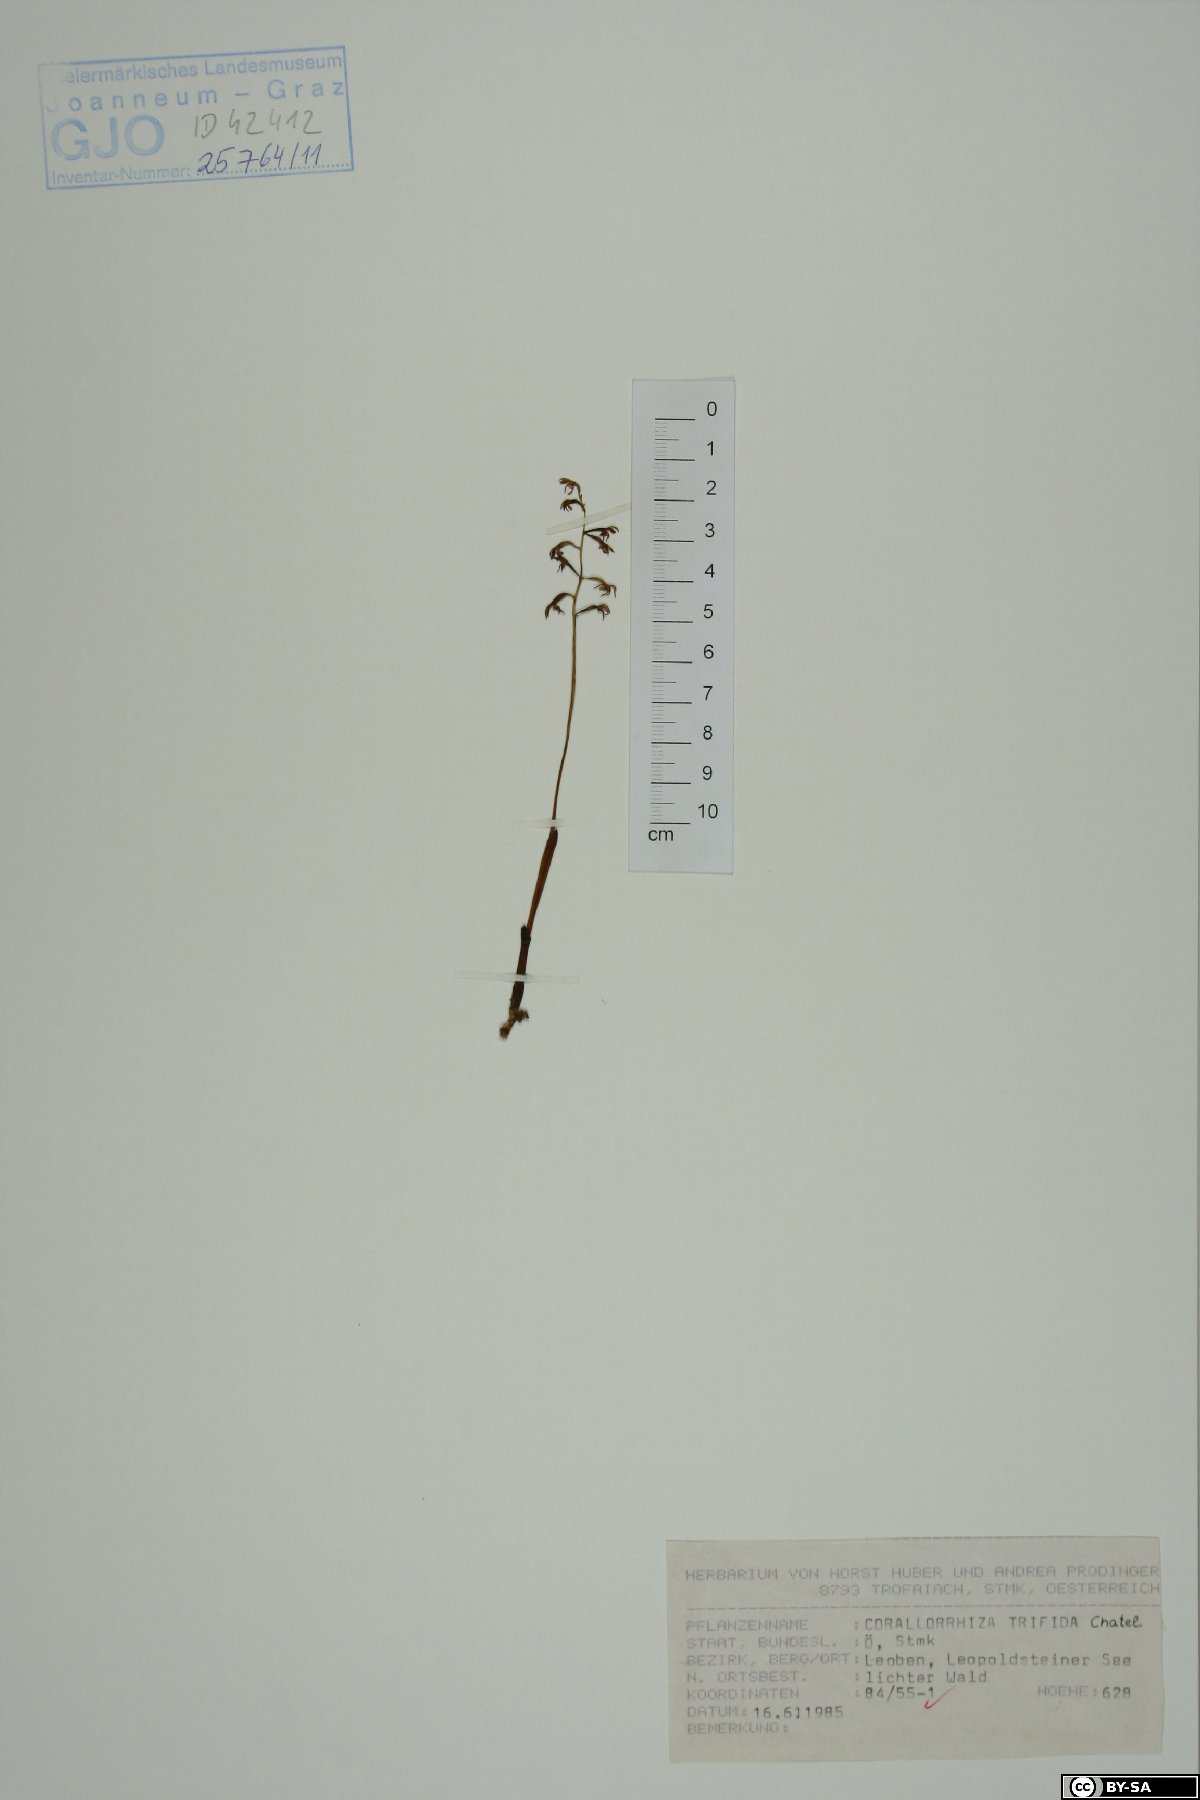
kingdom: Plantae
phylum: Tracheophyta
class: Liliopsida
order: Asparagales
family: Orchidaceae
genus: Corallorhiza
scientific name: Corallorhiza trifida
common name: Yellow coralroot
